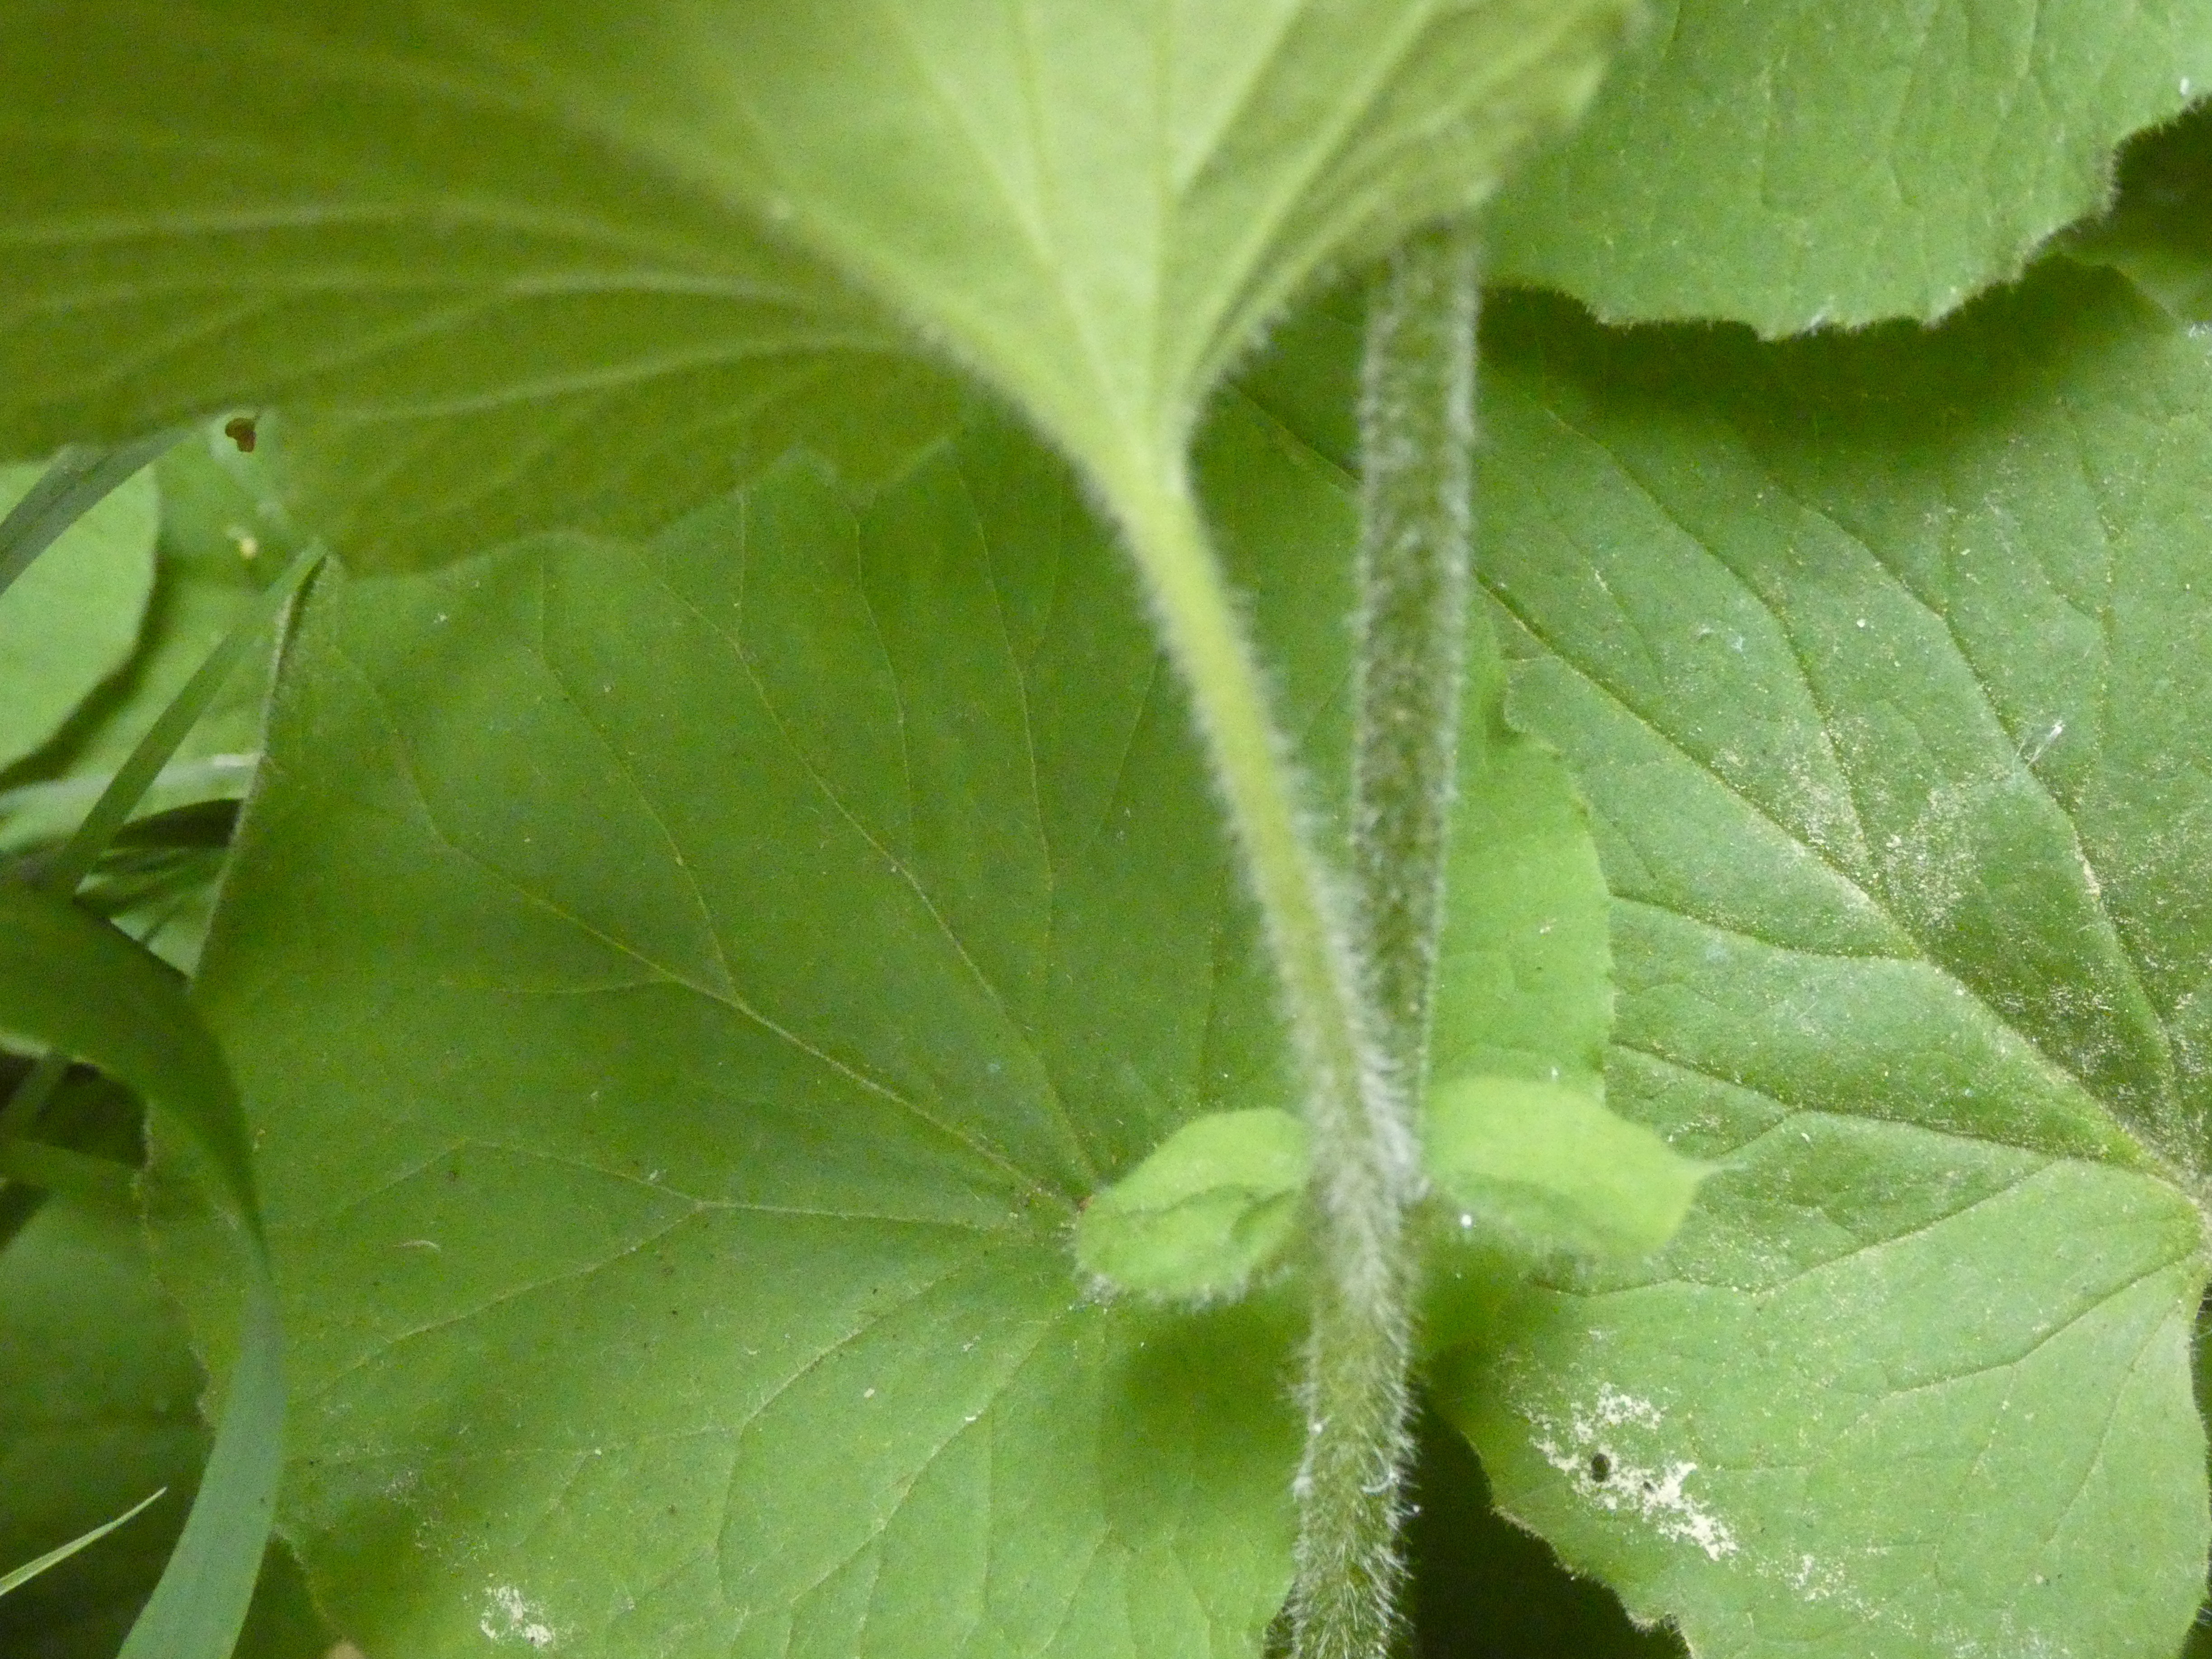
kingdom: Plantae
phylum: Tracheophyta
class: Magnoliopsida
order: Asterales
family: Asteraceae
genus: Doronicum
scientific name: Doronicum pardalianches
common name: Hjertebladet gemserod
